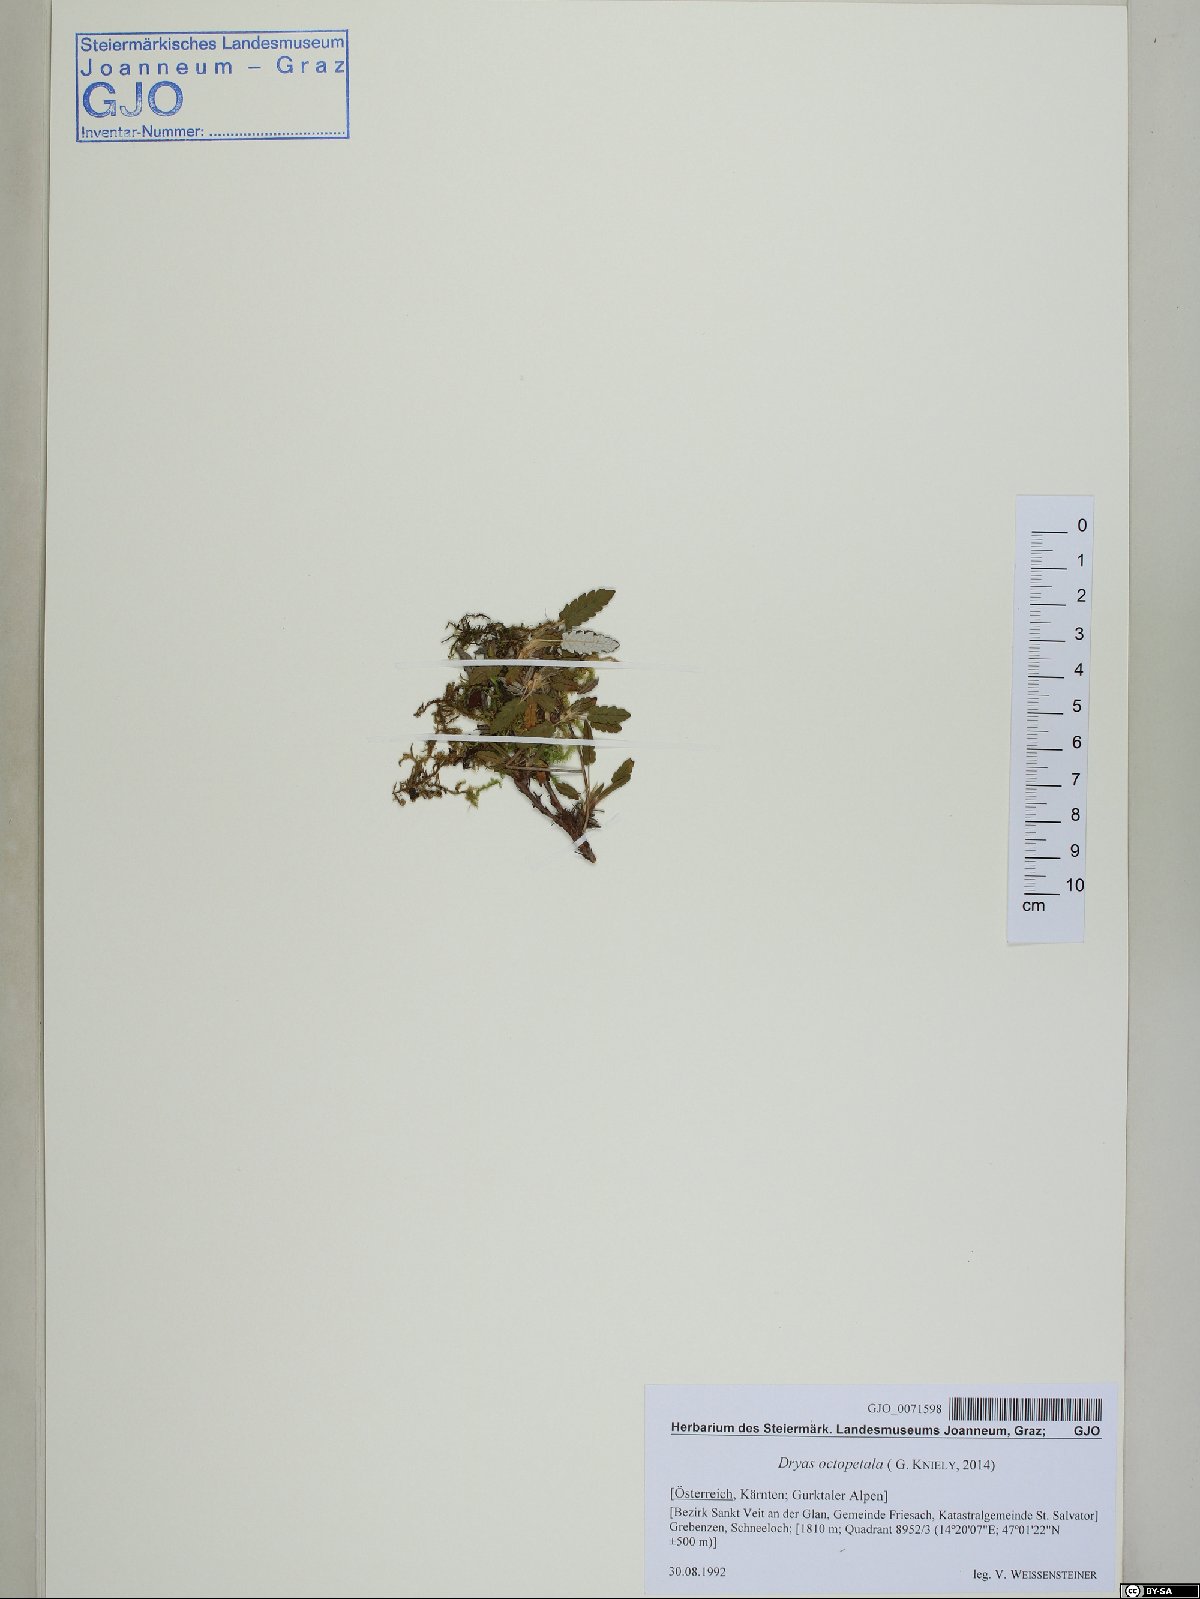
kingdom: Plantae
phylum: Tracheophyta
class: Magnoliopsida
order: Rosales
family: Rosaceae
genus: Dryas
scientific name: Dryas octopetala
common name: Eight-petal mountain-avens
